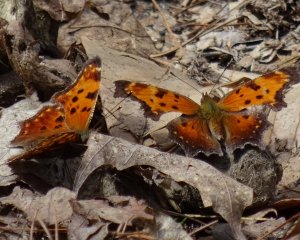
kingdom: Animalia
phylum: Arthropoda
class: Insecta
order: Lepidoptera
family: Nymphalidae
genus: Polygonia
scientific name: Polygonia progne
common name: Gray Comma
